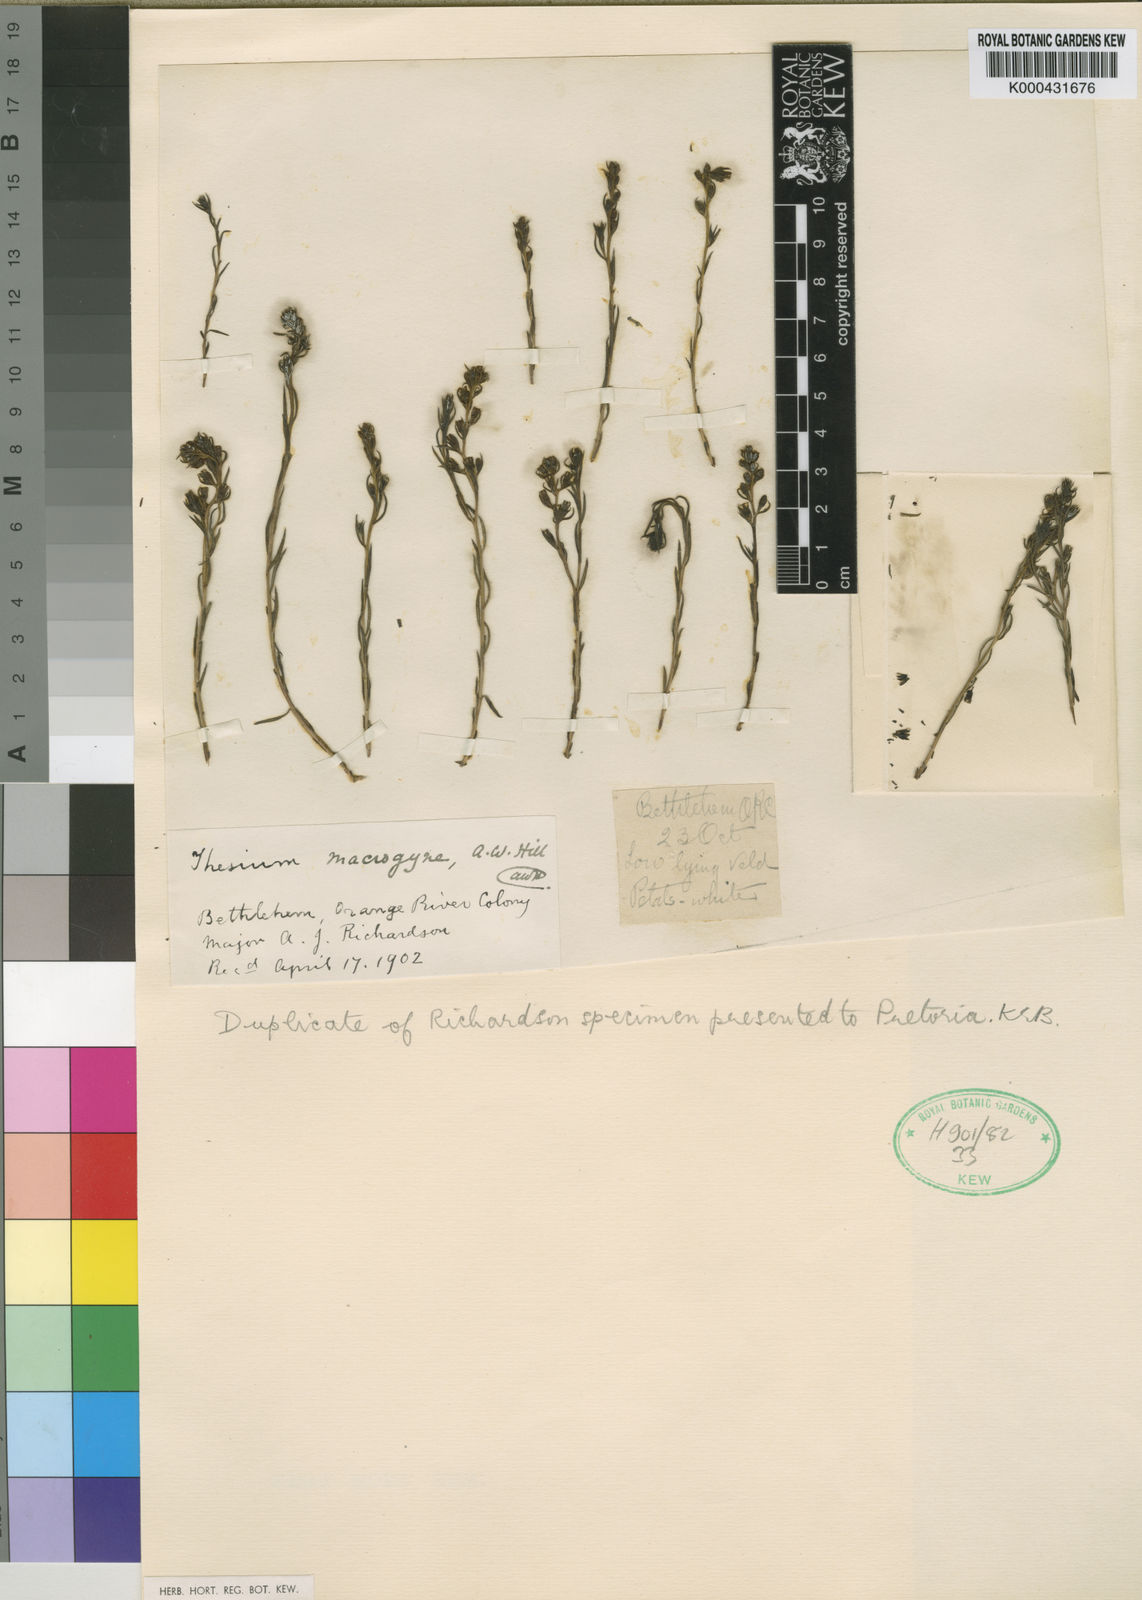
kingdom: Plantae
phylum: Tracheophyta
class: Magnoliopsida
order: Santalales
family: Thesiaceae
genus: Thesium
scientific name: Thesium macrogyne
